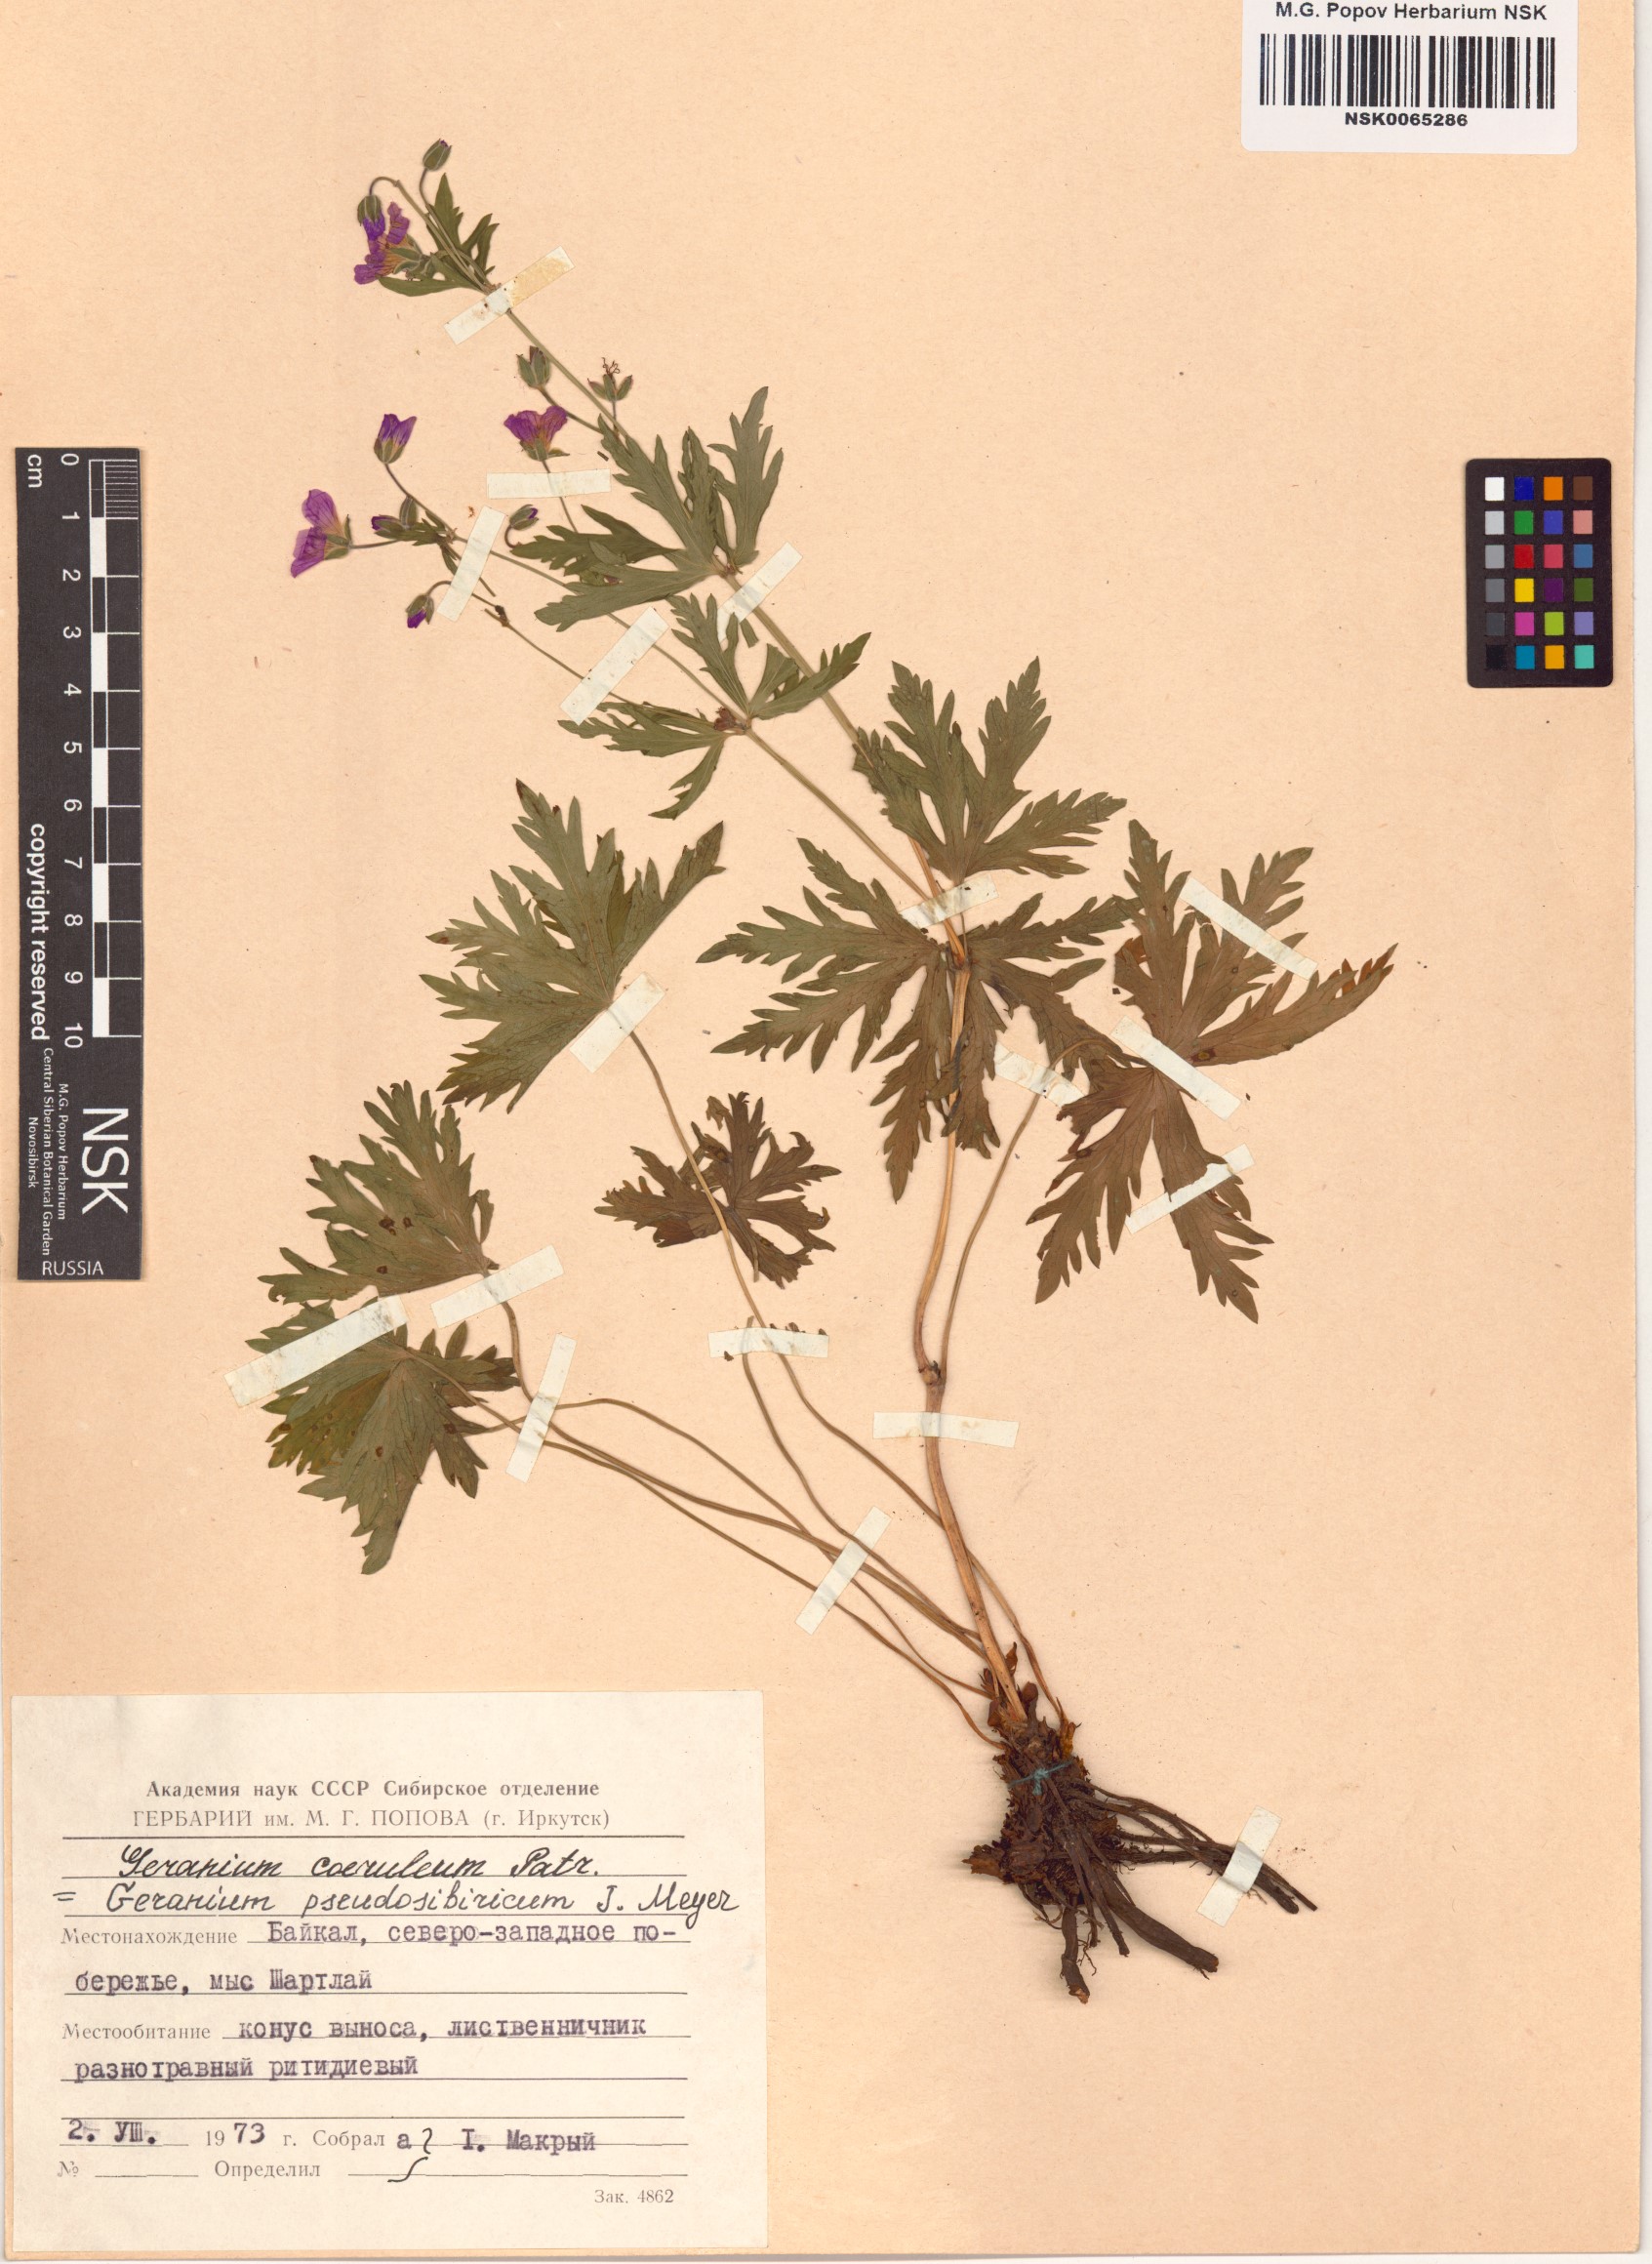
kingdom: Plantae
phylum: Tracheophyta
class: Magnoliopsida
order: Geraniales
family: Geraniaceae
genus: Geranium
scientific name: Geranium pseudosibiricum
